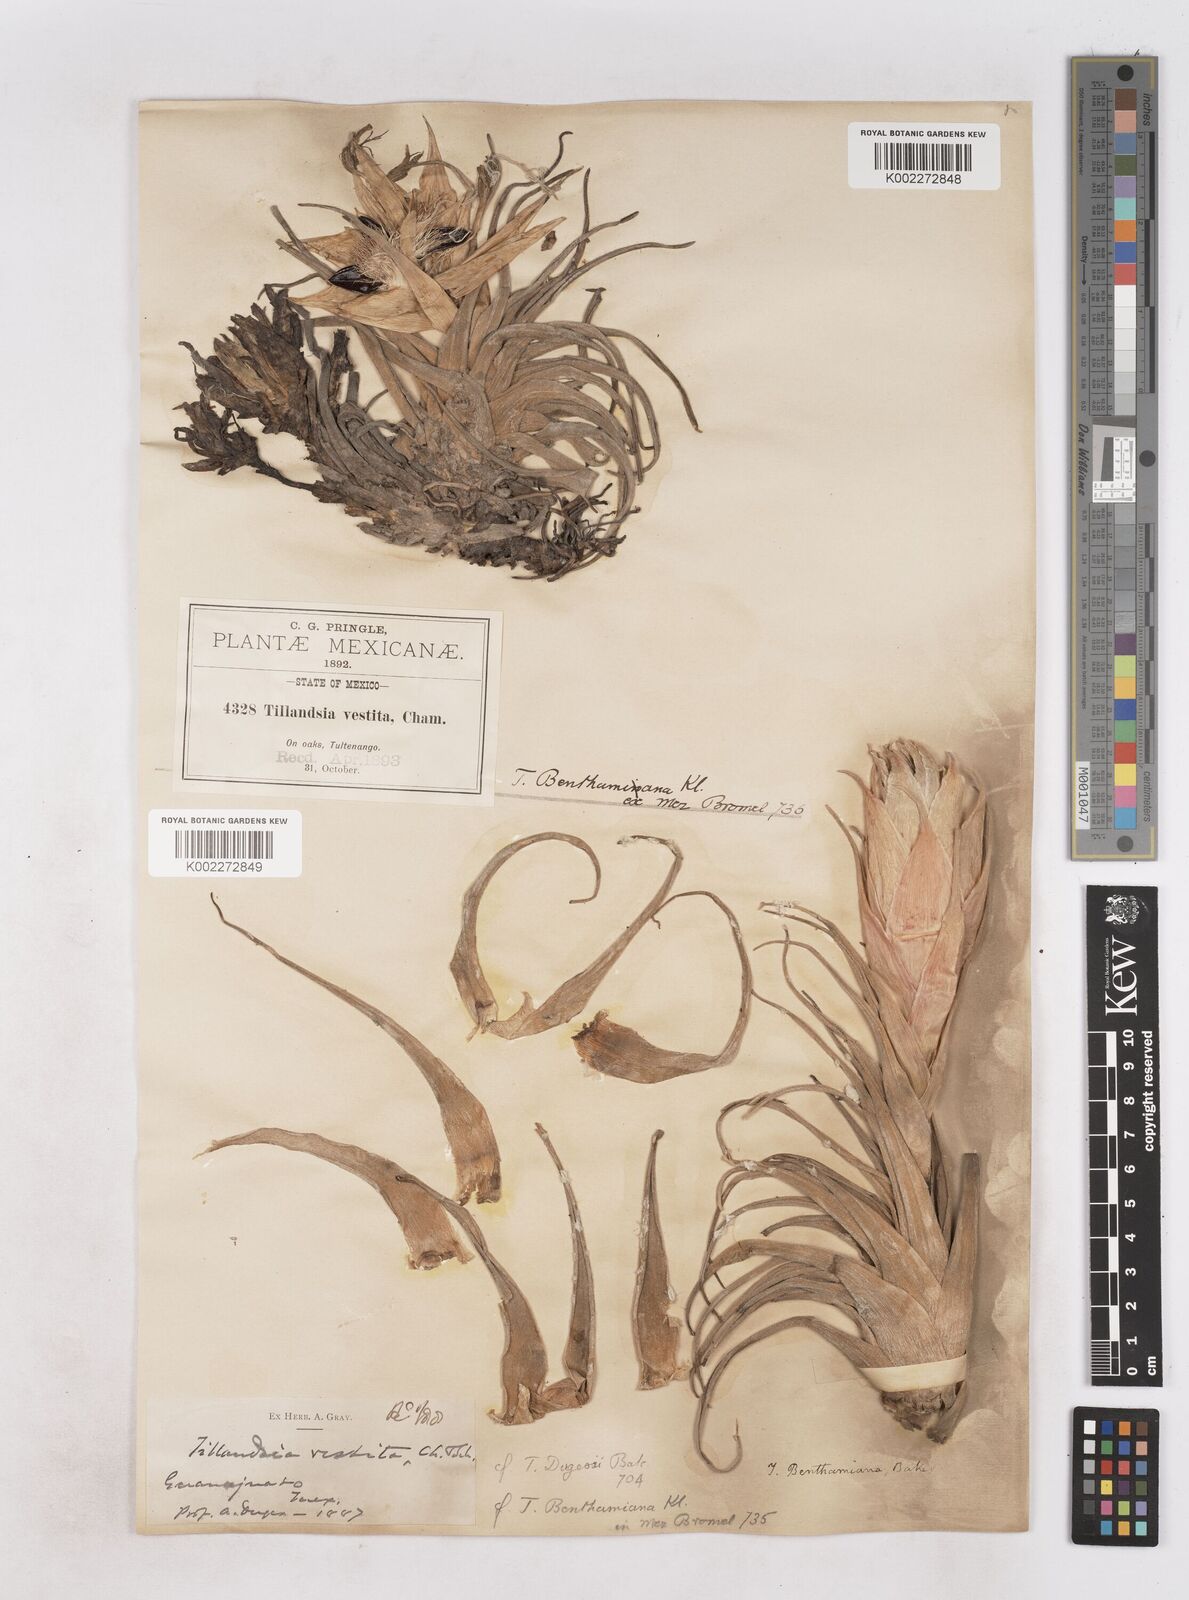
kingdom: Plantae
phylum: Tracheophyta
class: Liliopsida
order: Poales
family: Bromeliaceae
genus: Tillandsia
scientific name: Tillandsia erubescens
